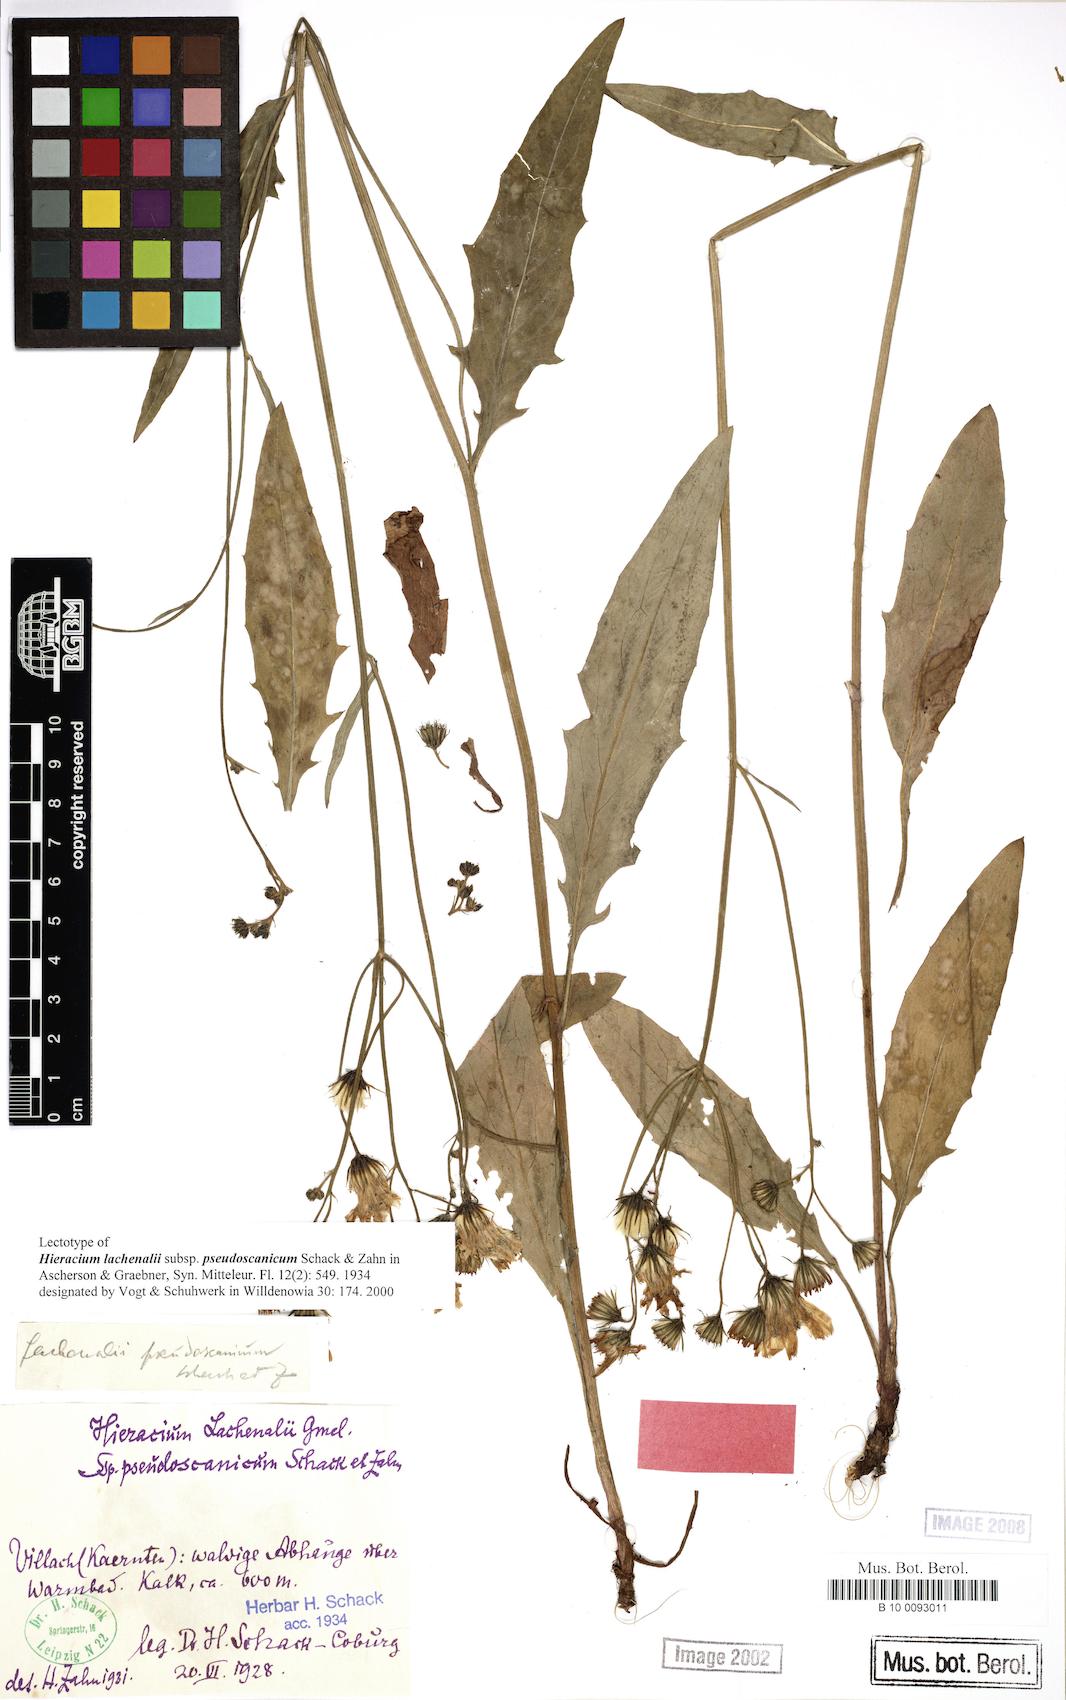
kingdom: Plantae
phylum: Tracheophyta
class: Magnoliopsida
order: Asterales
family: Asteraceae
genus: Hieracium
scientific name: Hieracium lachenalii
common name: Common hawkweed
